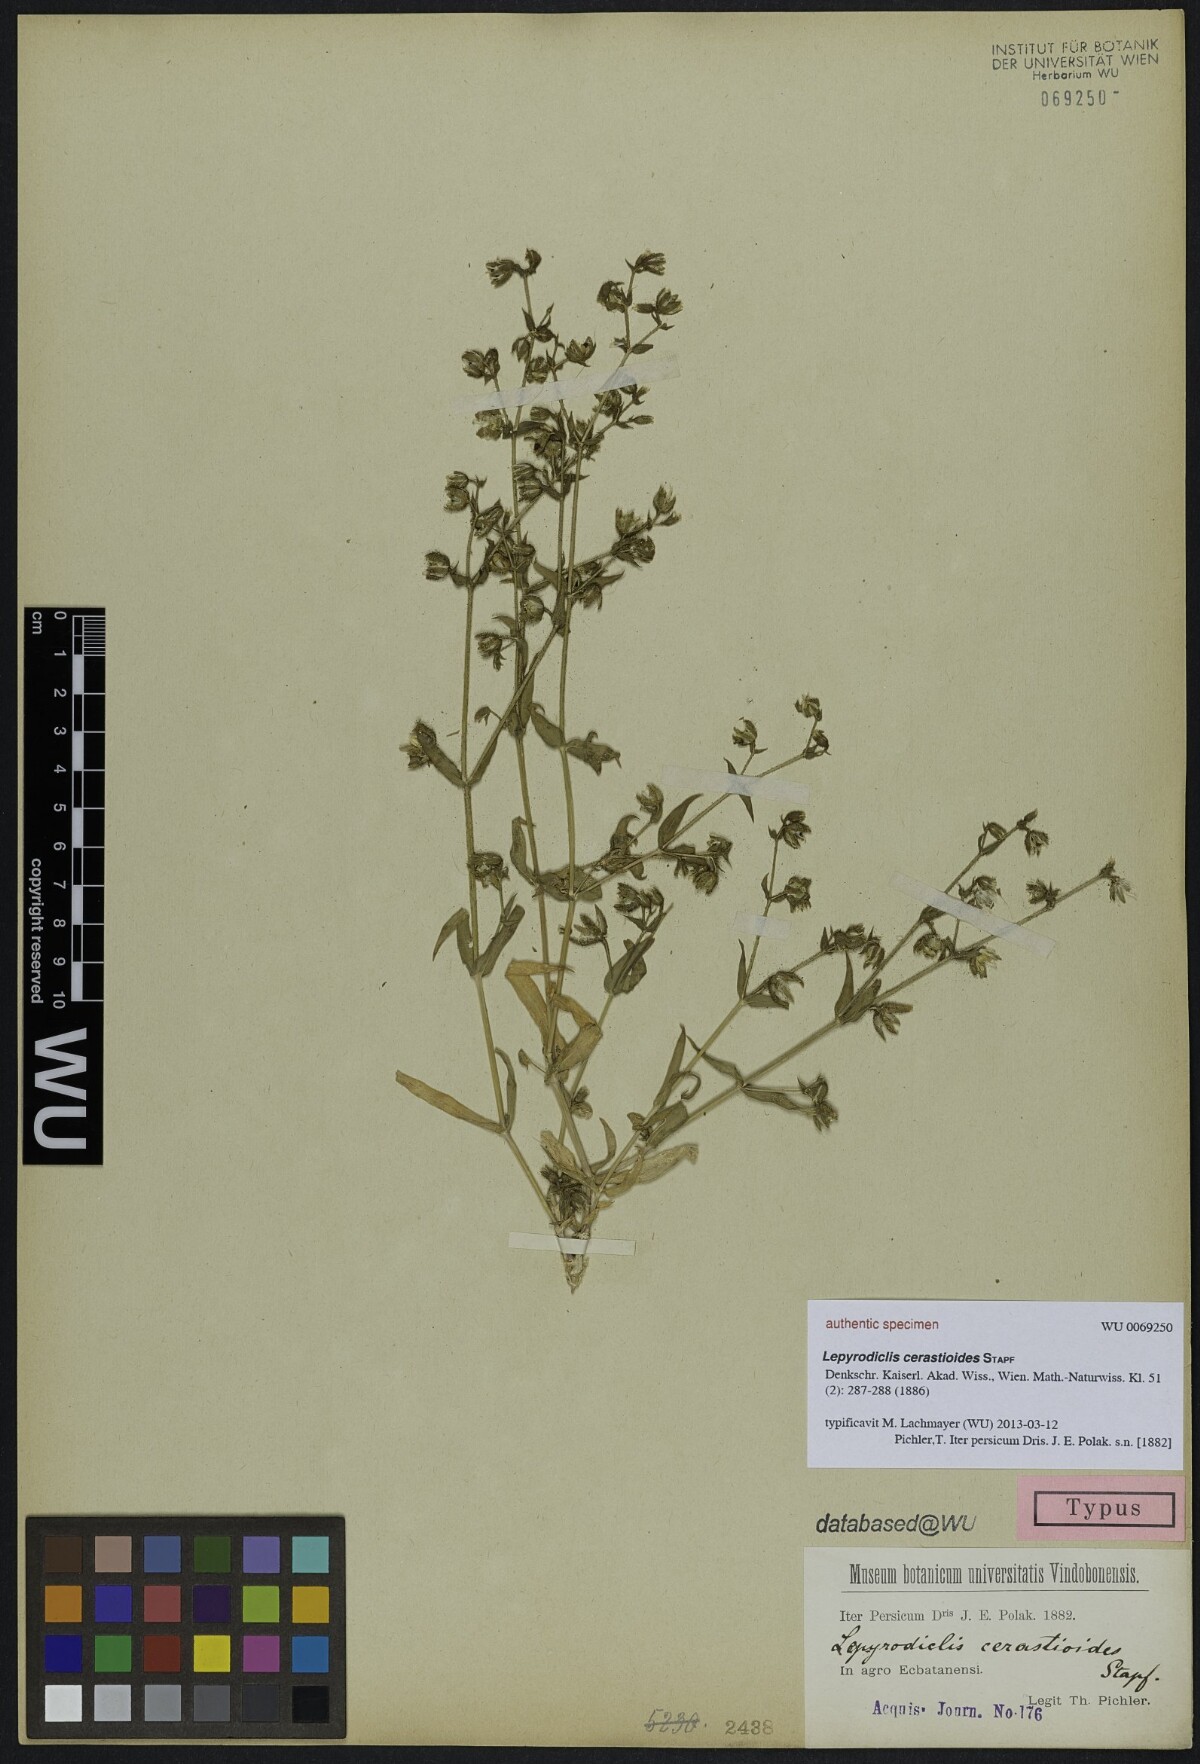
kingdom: Plantae
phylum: Tracheophyta
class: Magnoliopsida
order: Caryophyllales
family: Caryophyllaceae
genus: Lepyrodiclis
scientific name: Lepyrodiclis holosteoides
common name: False jagged-ckickweed
